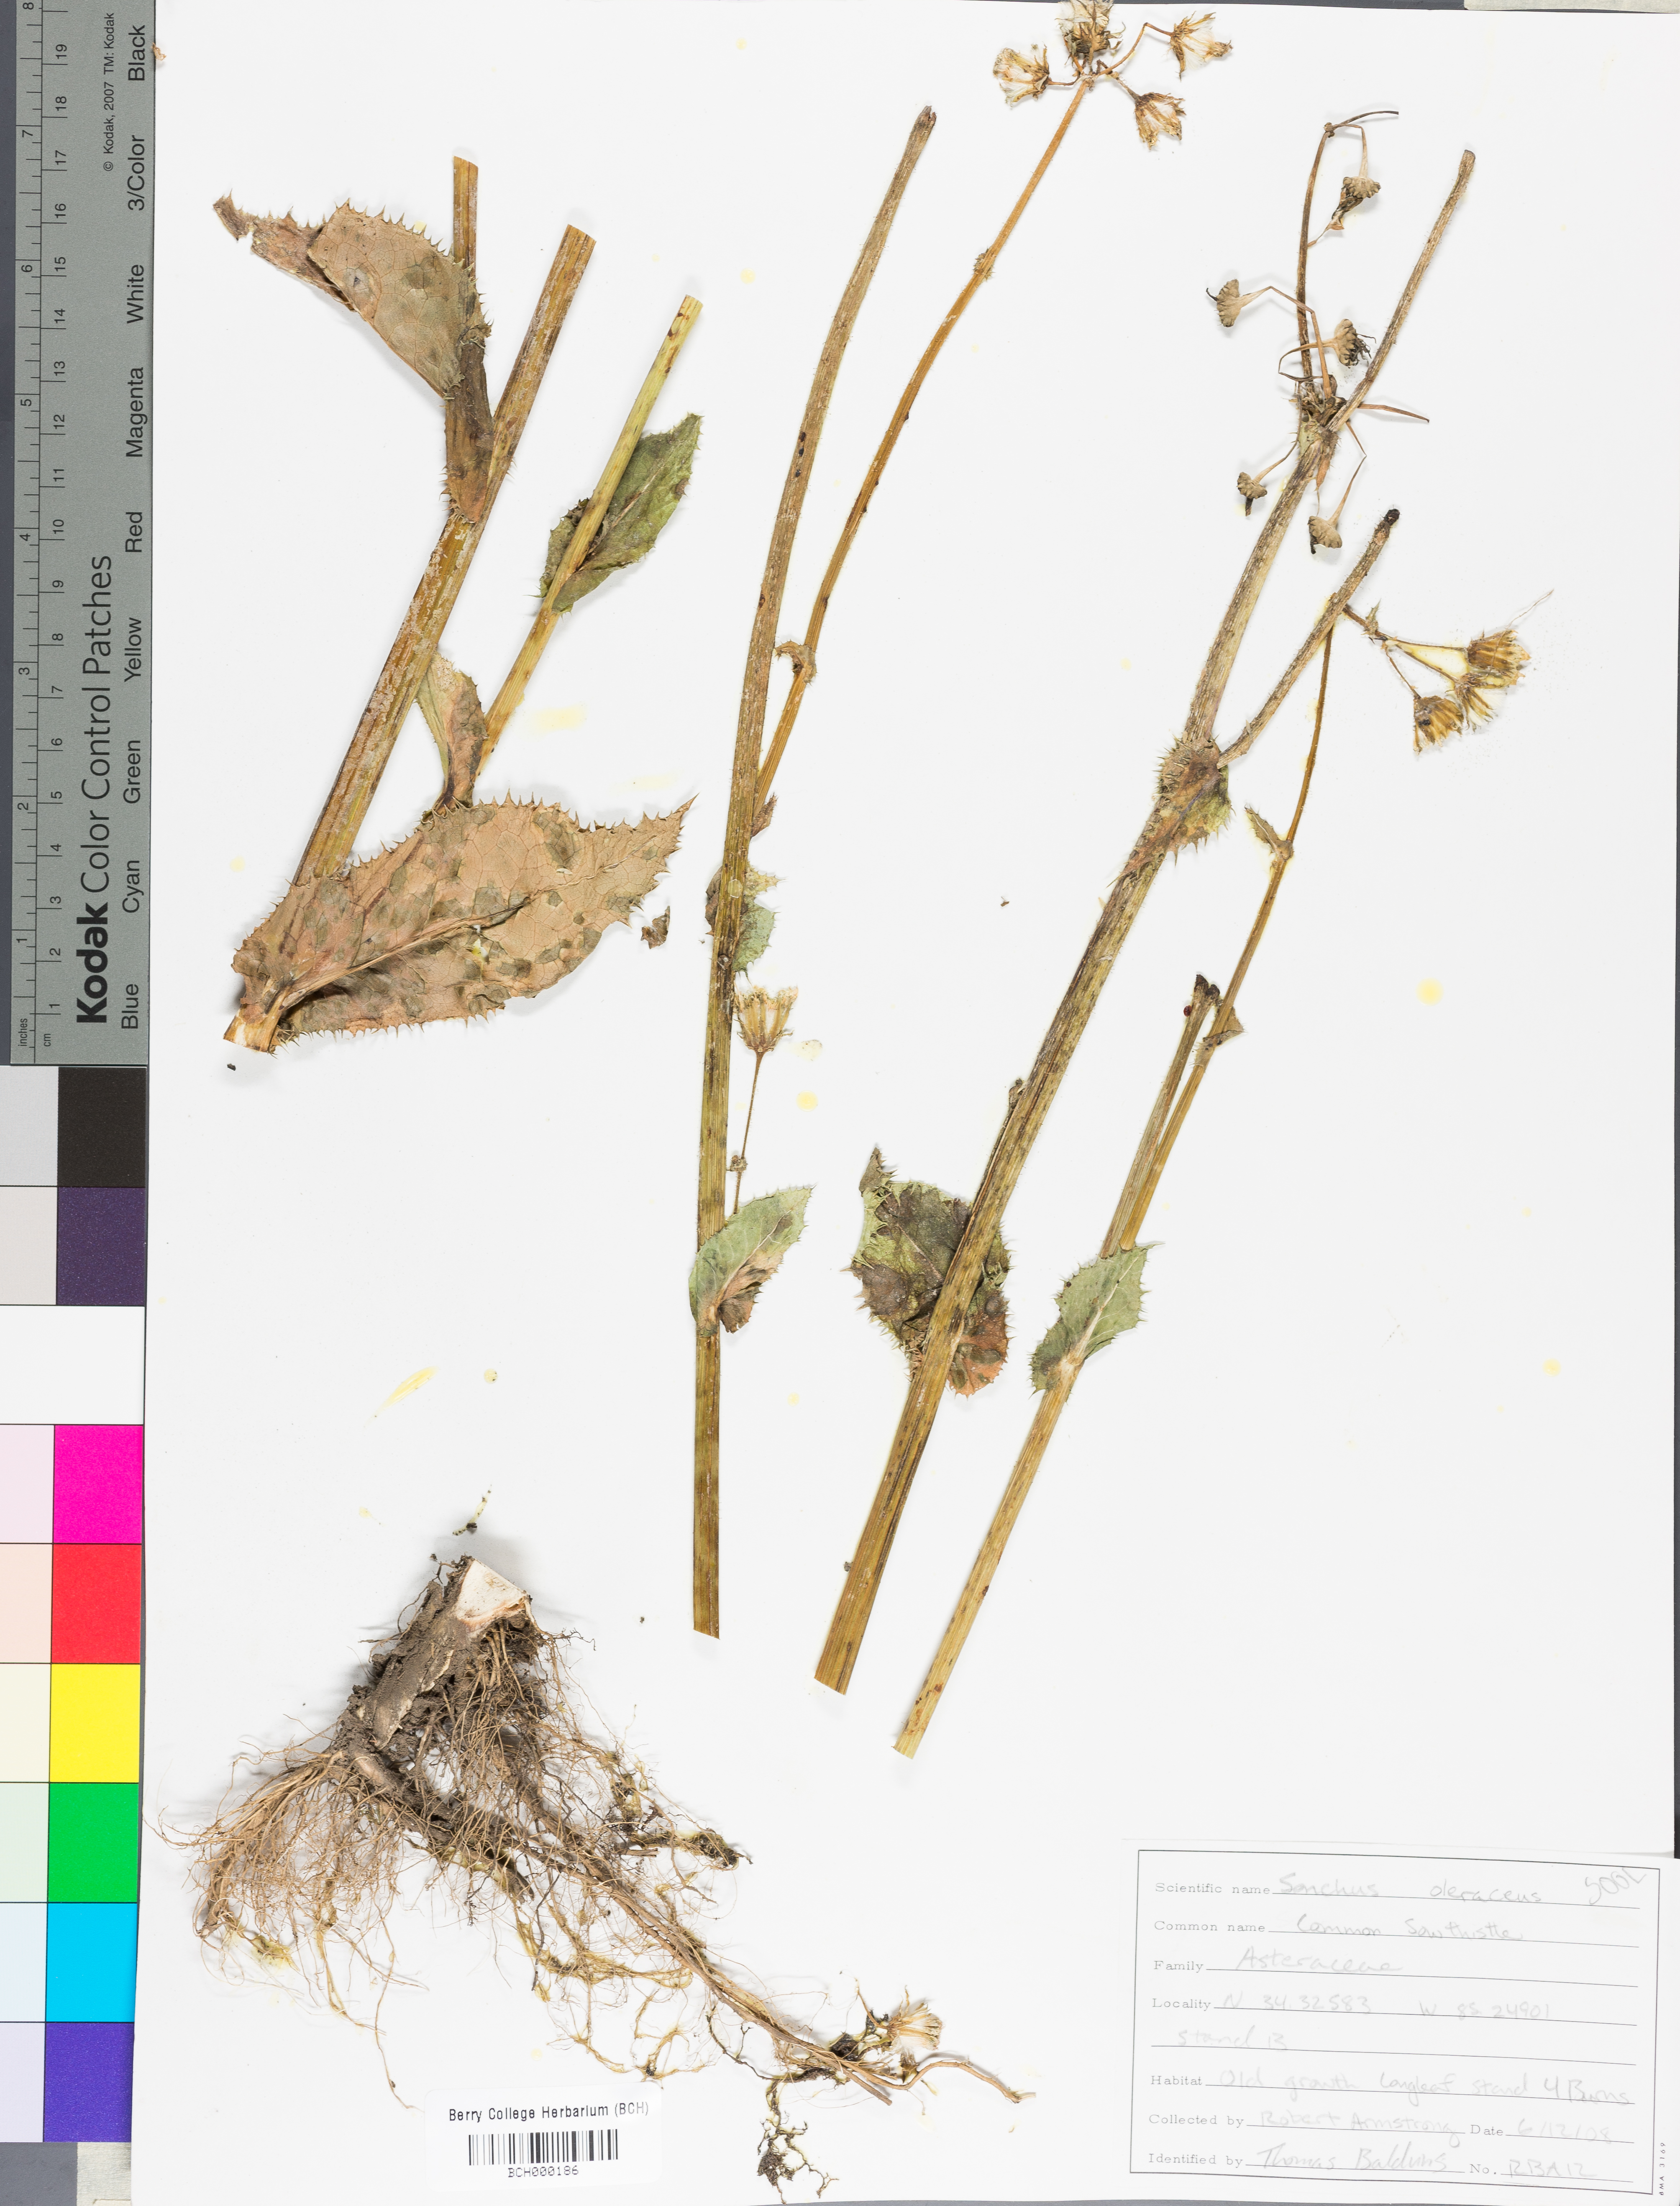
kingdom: Plantae
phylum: Tracheophyta
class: Magnoliopsida
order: Asterales
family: Asteraceae
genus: Sonchus
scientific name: Sonchus oleraceus
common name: Common sowthistle
